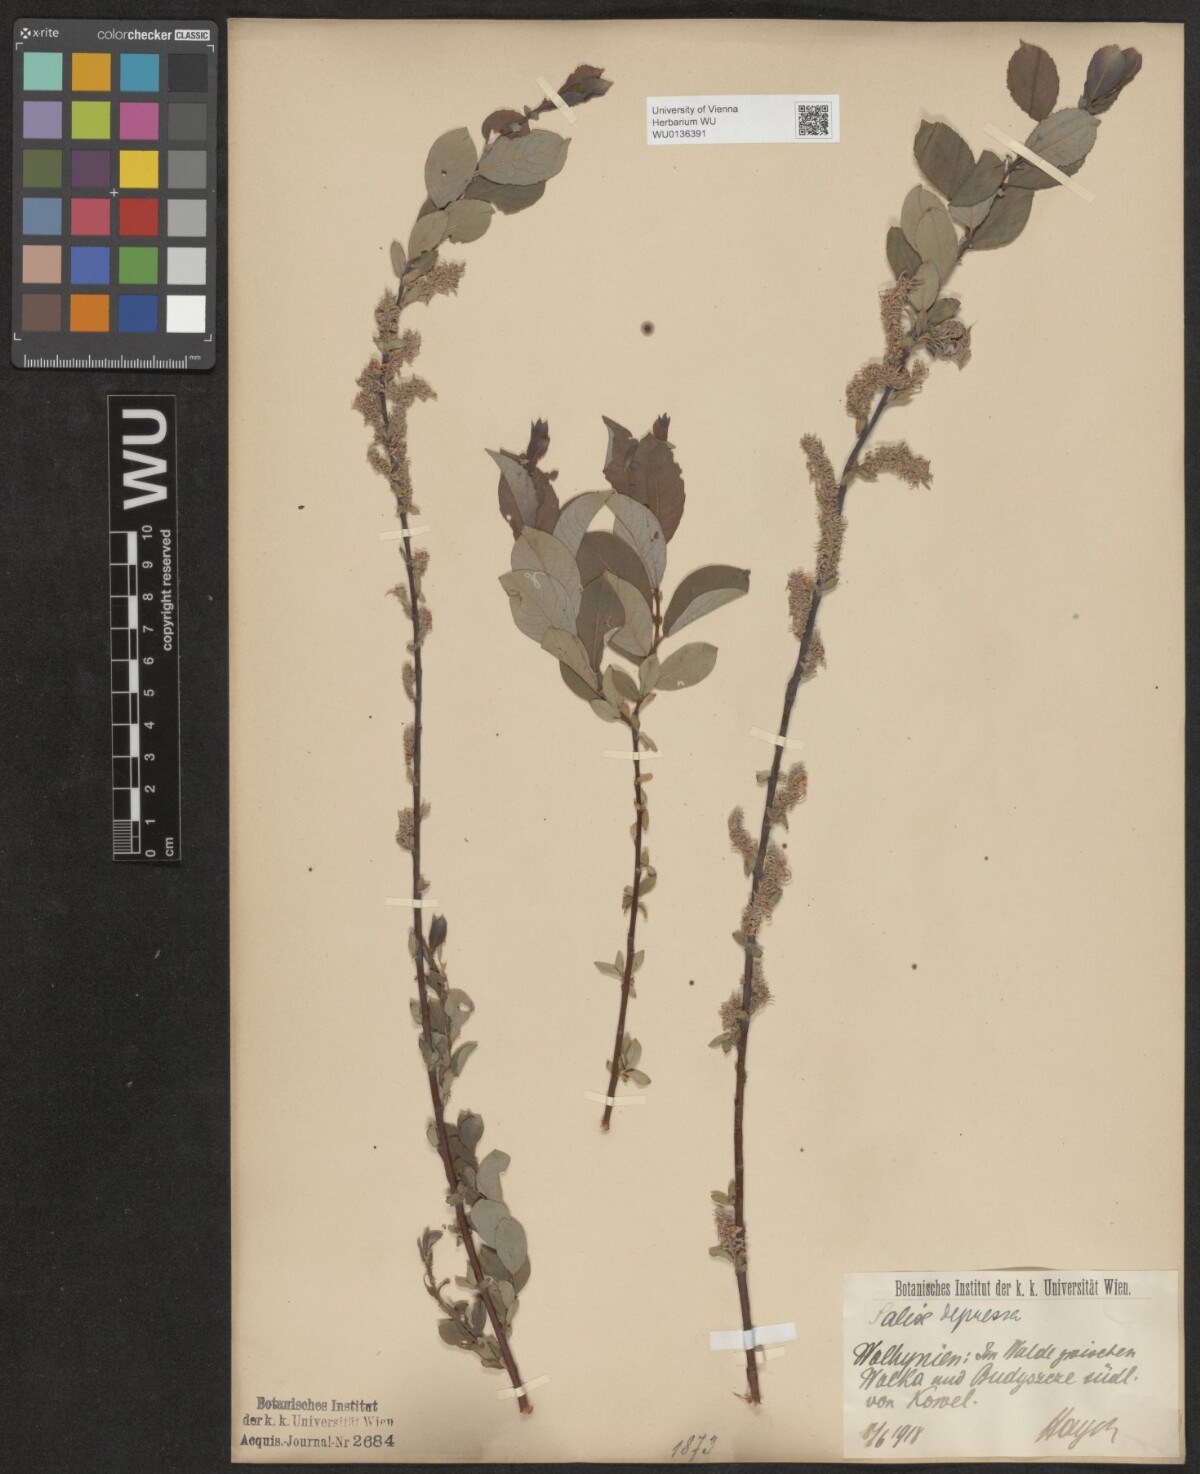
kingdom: Plantae
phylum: Tracheophyta
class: Magnoliopsida
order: Malpighiales
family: Salicaceae
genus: Salix
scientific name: Salix lanata
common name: Woolly willow
